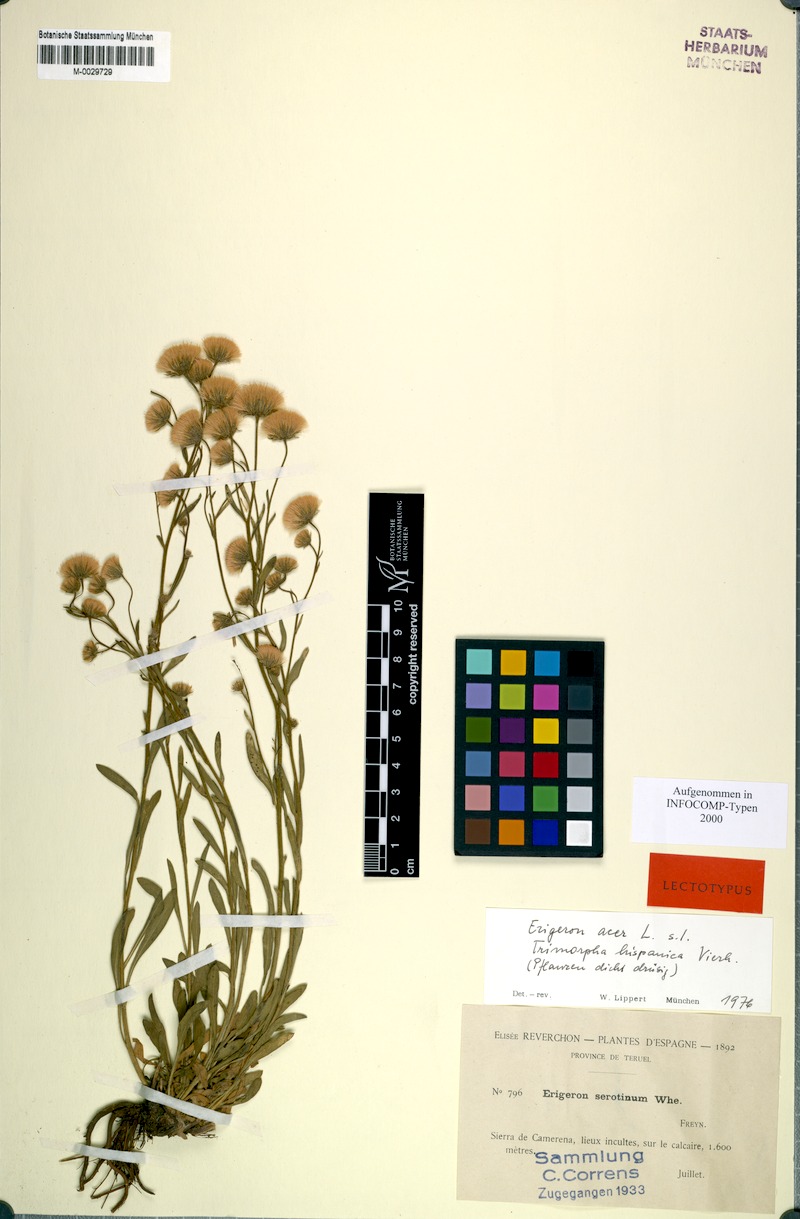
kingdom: Plantae
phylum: Tracheophyta
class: Magnoliopsida
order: Asterales
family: Asteraceae
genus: Erigeron
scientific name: Erigeron acris
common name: Blue fleabane
